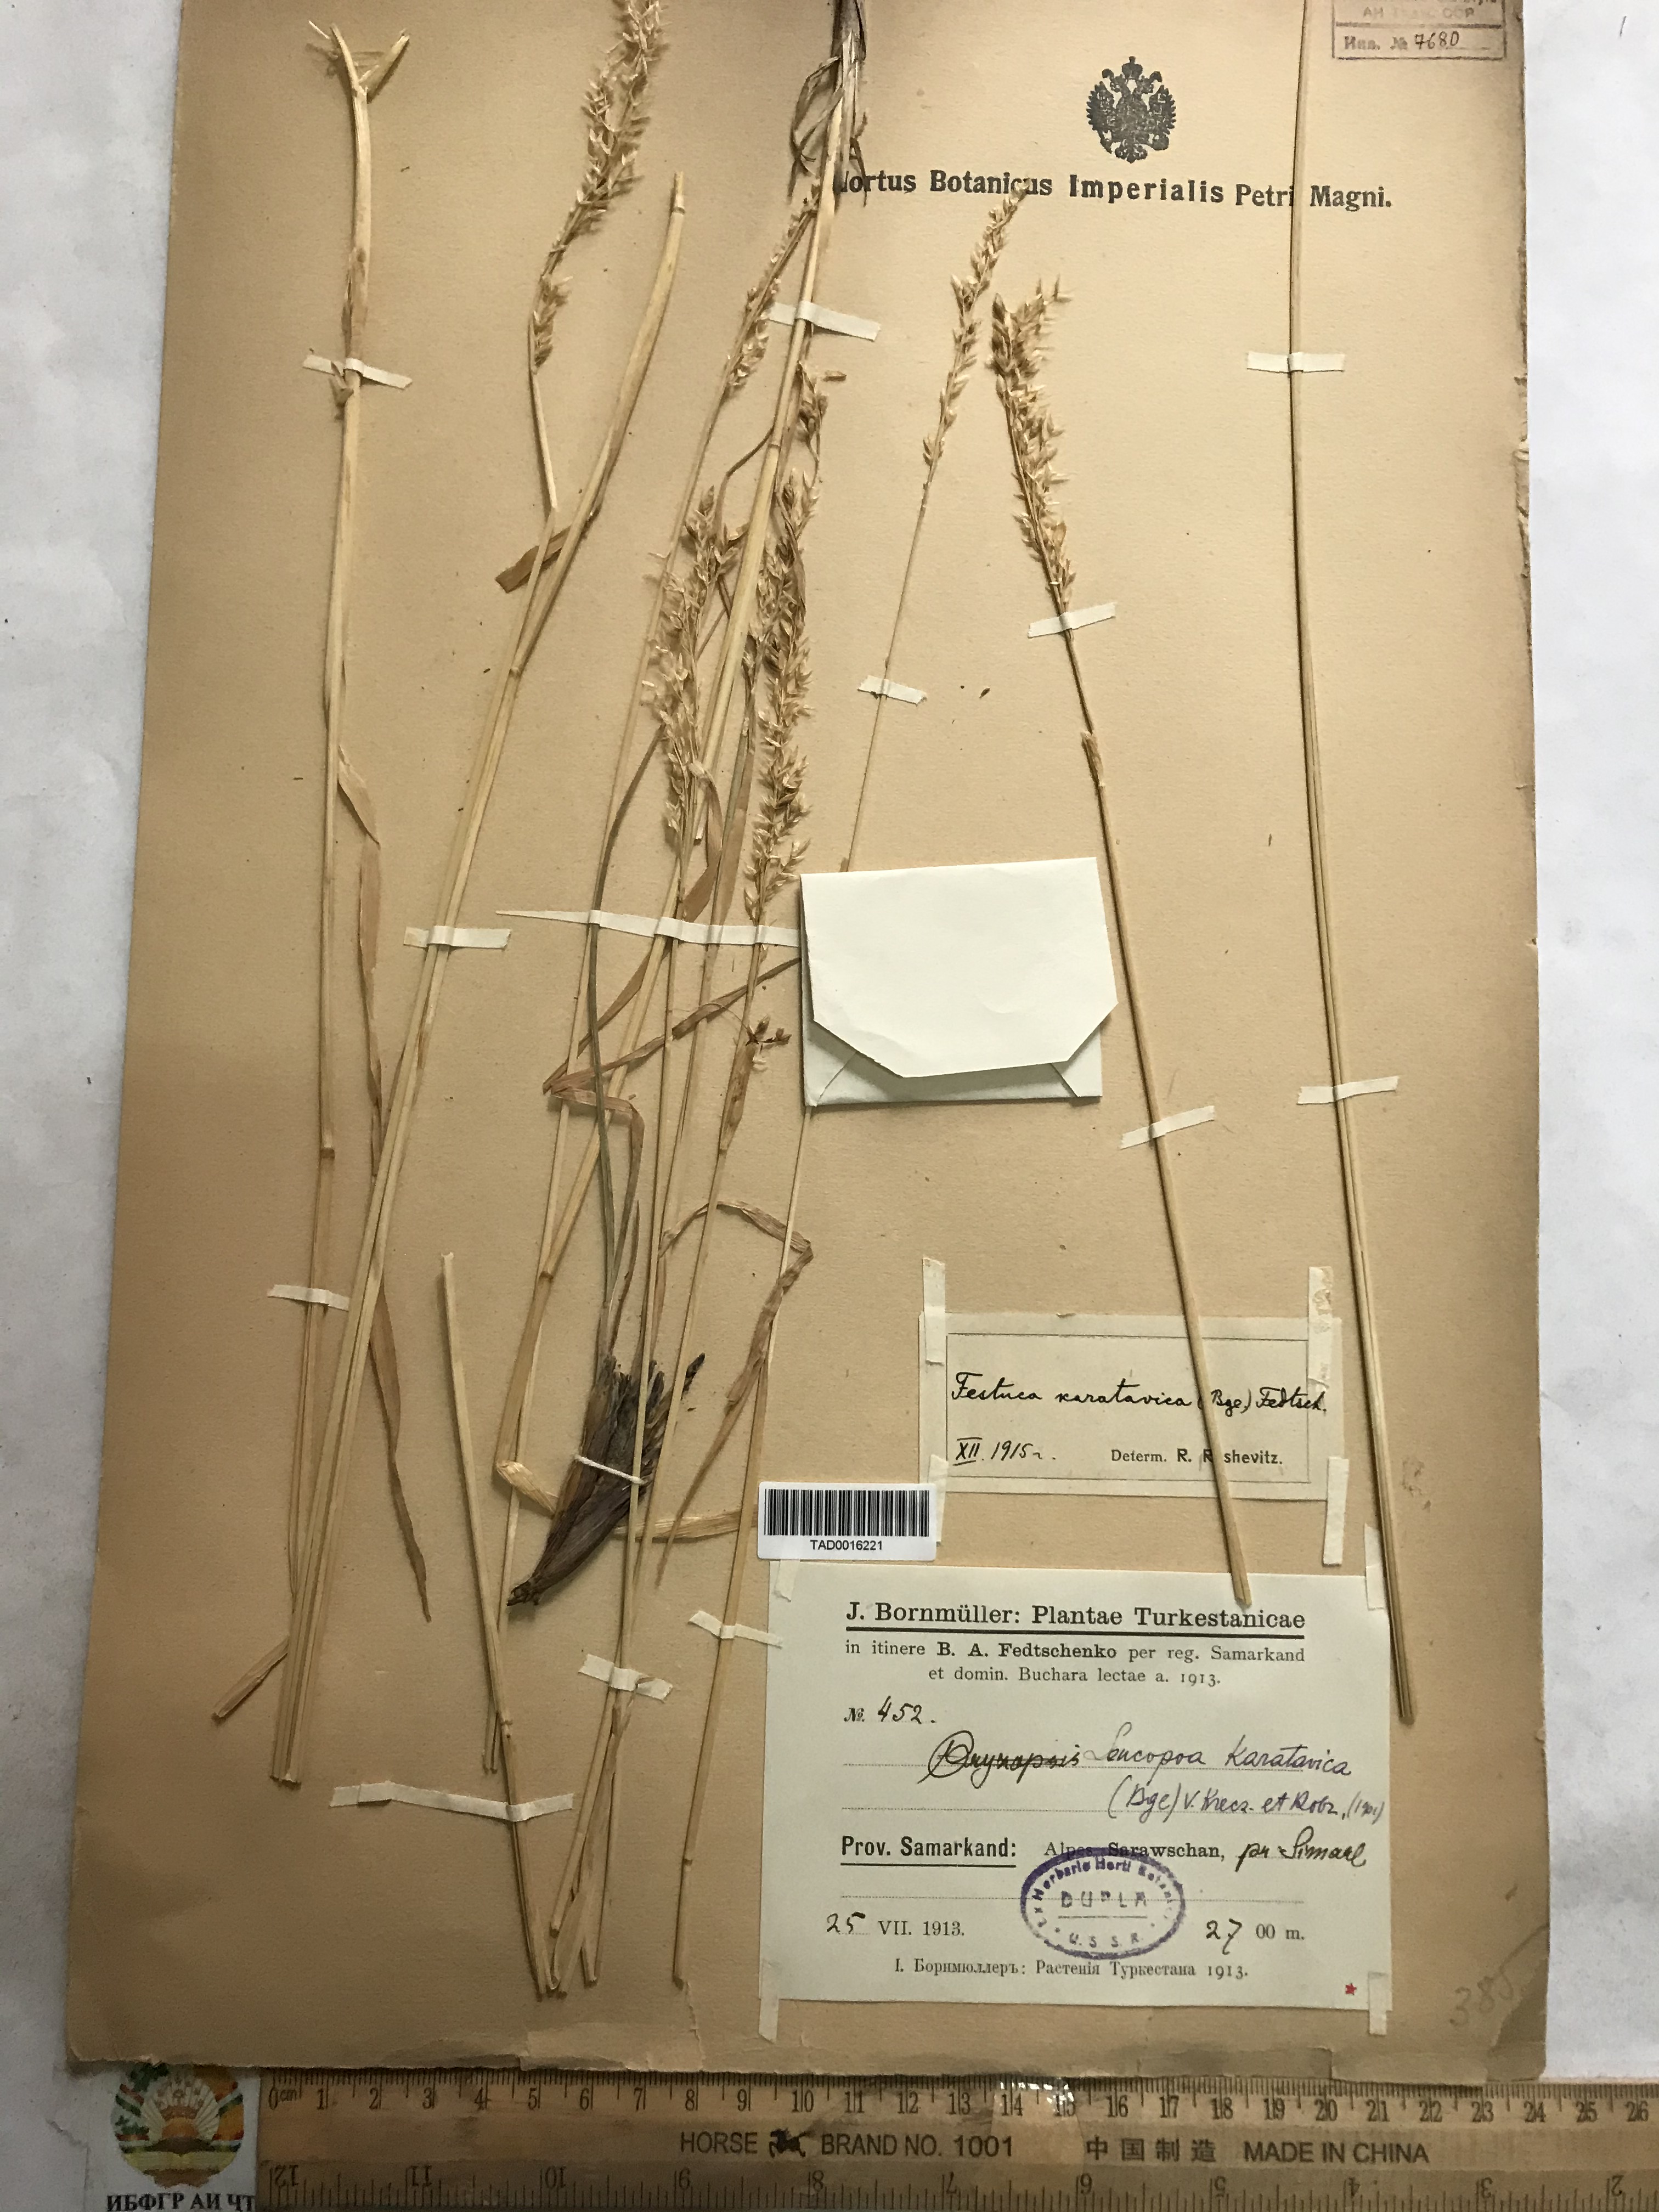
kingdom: Plantae
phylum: Tracheophyta
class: Liliopsida
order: Poales
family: Poaceae
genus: Festuca
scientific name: Festuca karatavica
